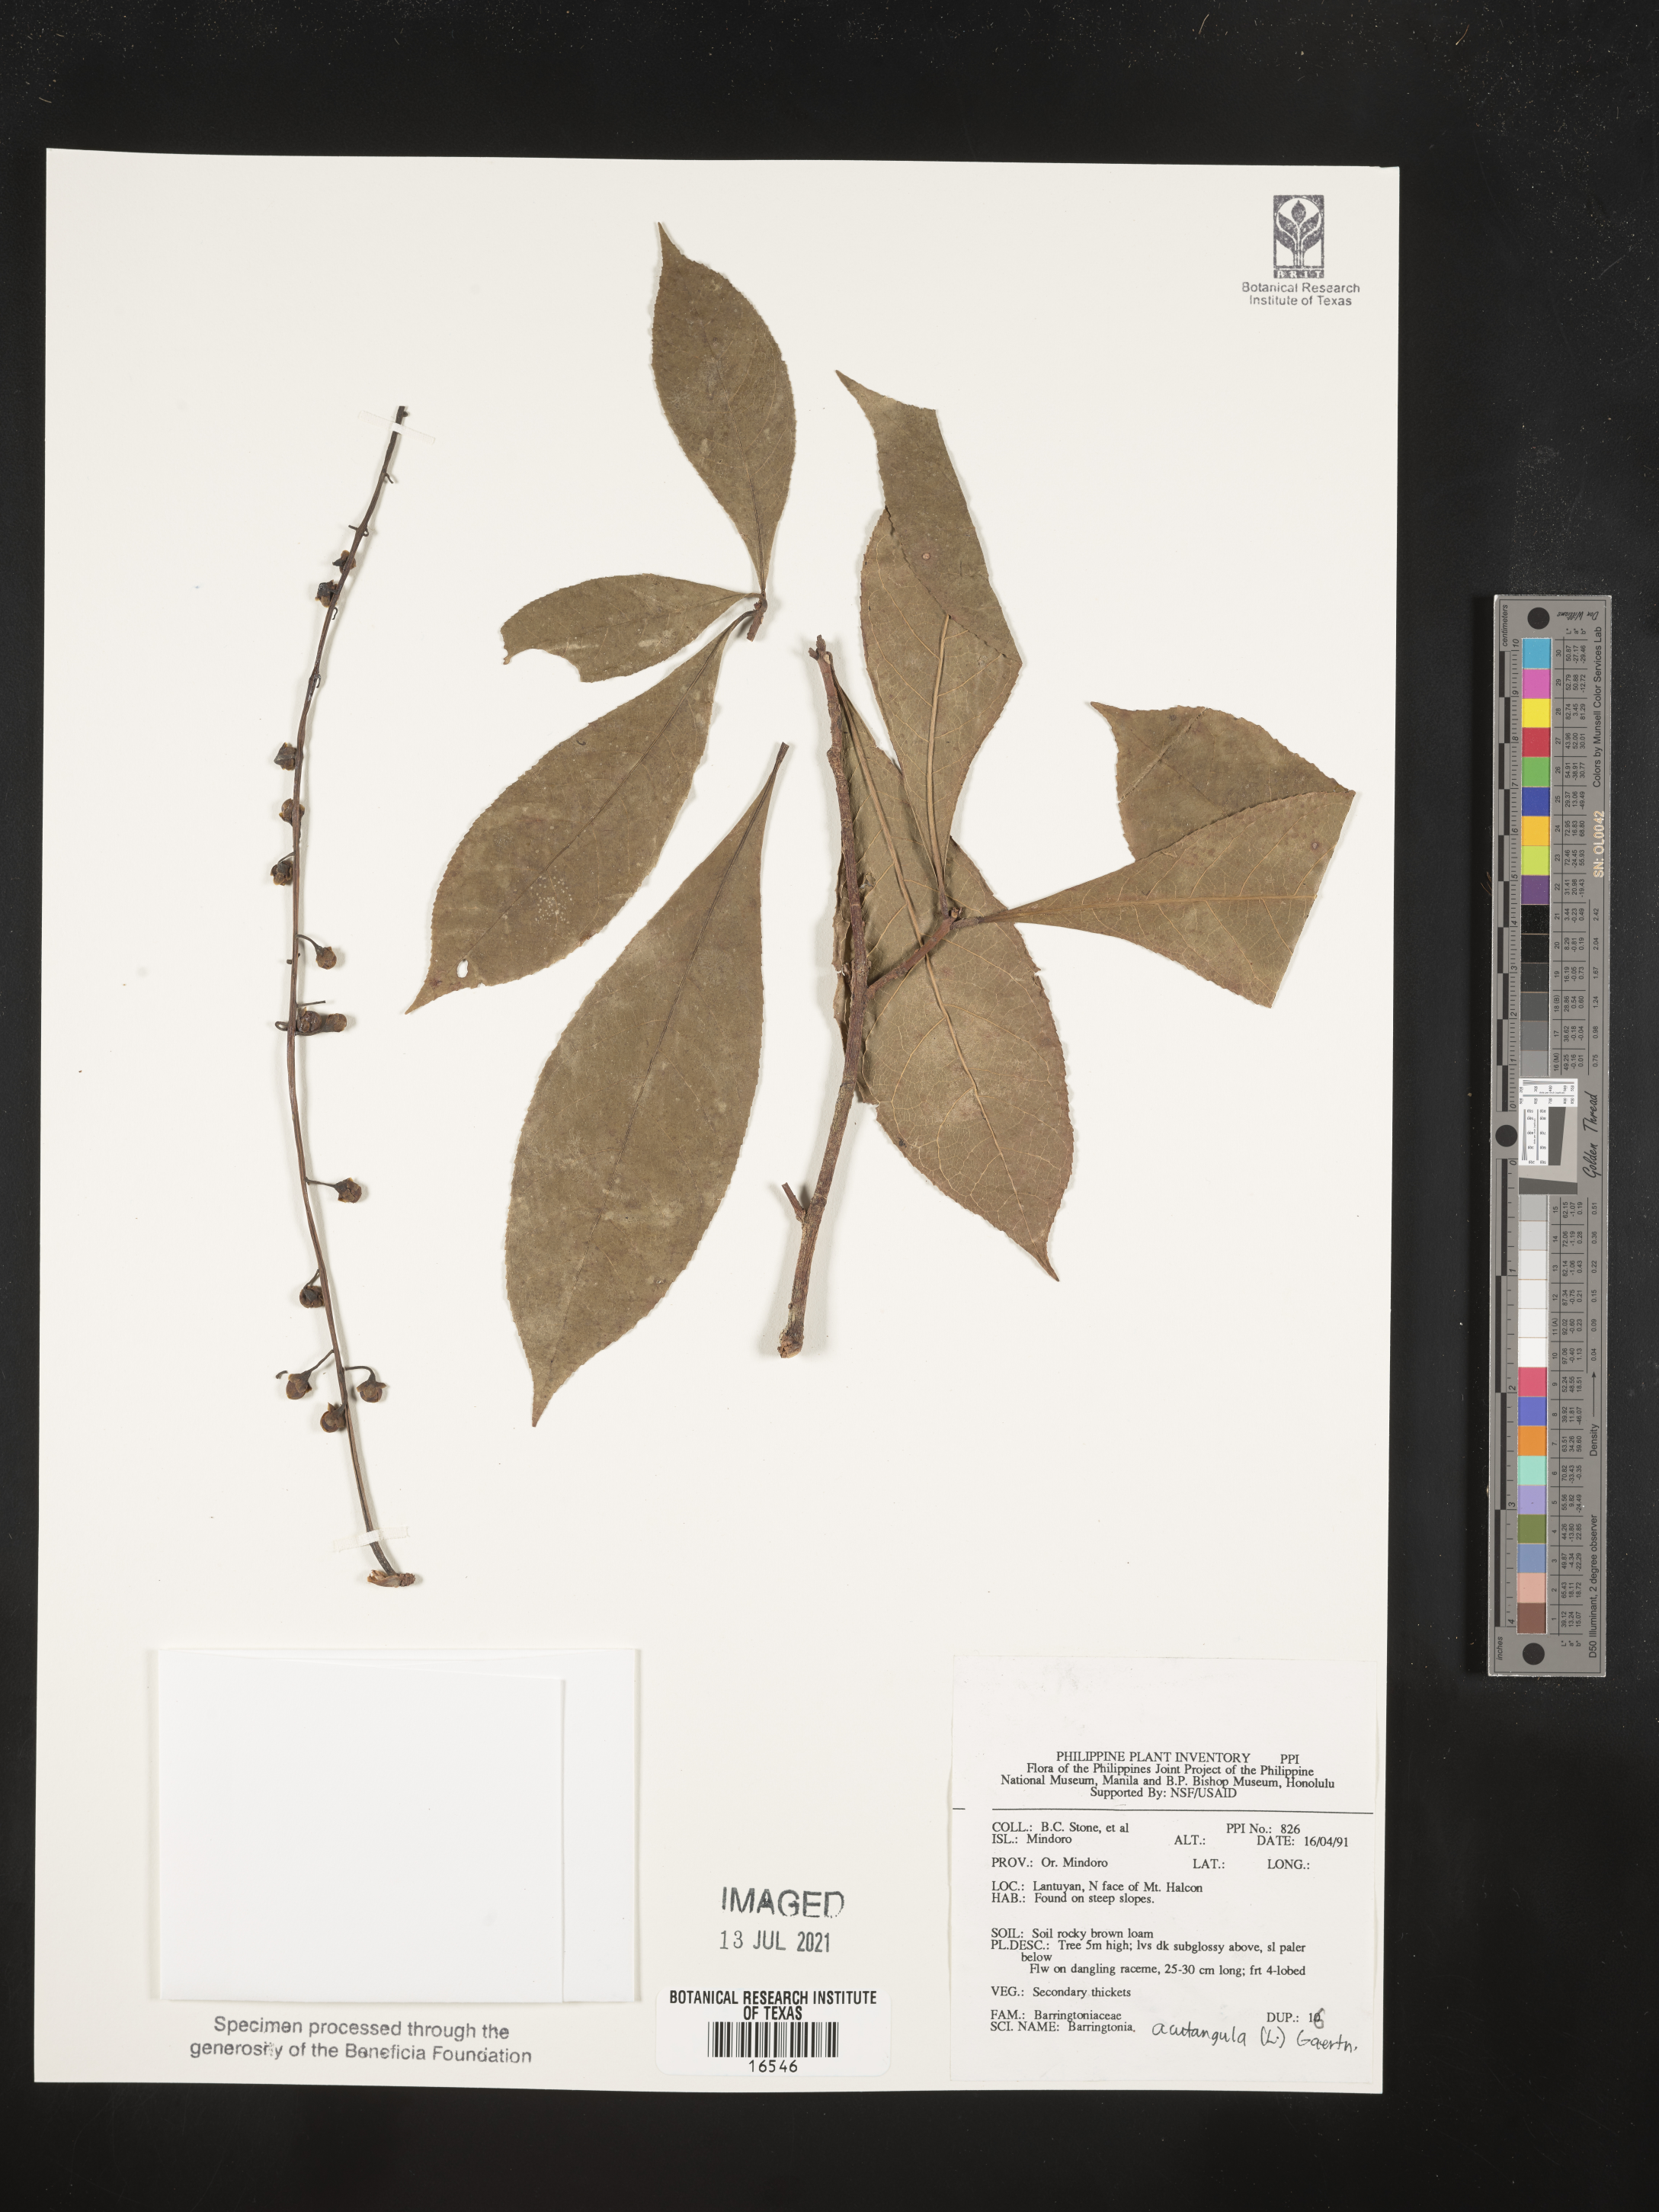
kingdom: Plantae
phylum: Tracheophyta
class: Magnoliopsida
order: Ericales
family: Lecythidaceae
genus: Barringtonia
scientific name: Barringtonia acutangula
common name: Freshwater mangrove
